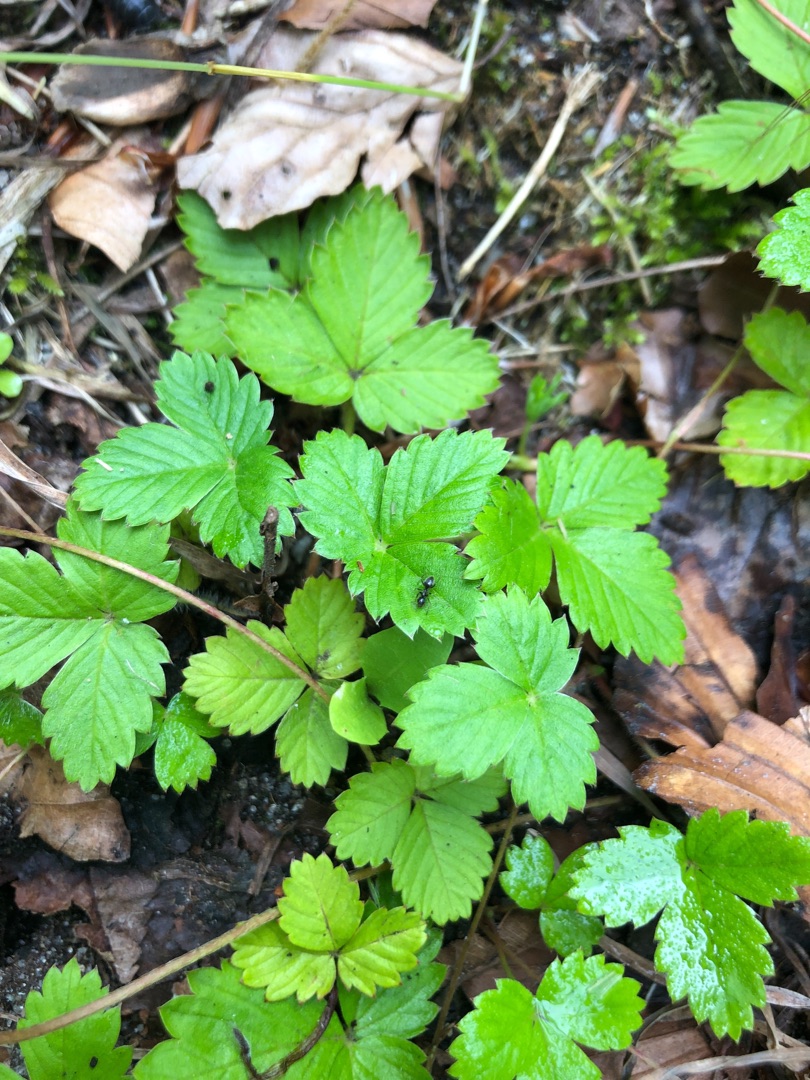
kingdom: Plantae
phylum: Tracheophyta
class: Magnoliopsida
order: Rosales
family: Rosaceae
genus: Fragaria
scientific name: Fragaria vesca
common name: Skov-jordbær
